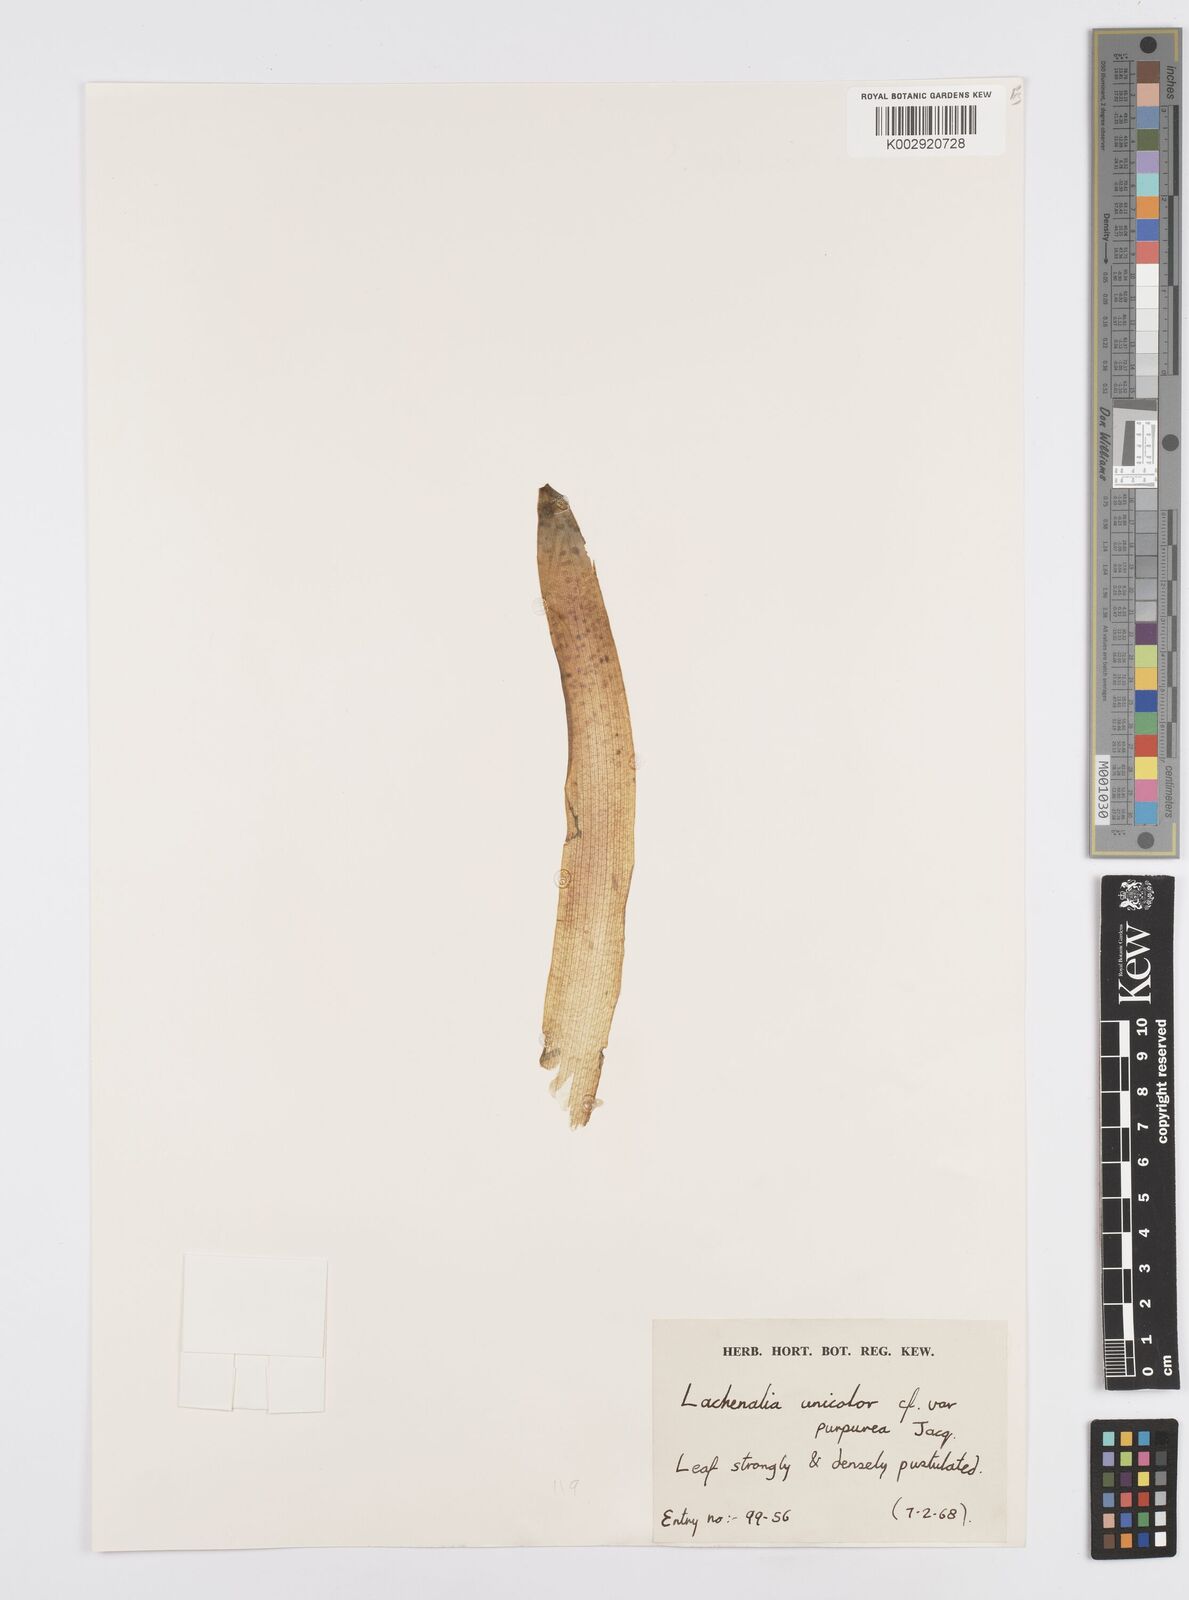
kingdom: Plantae
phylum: Tracheophyta
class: Liliopsida
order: Asparagales
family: Asparagaceae
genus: Lachenalia
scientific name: Lachenalia pallida
